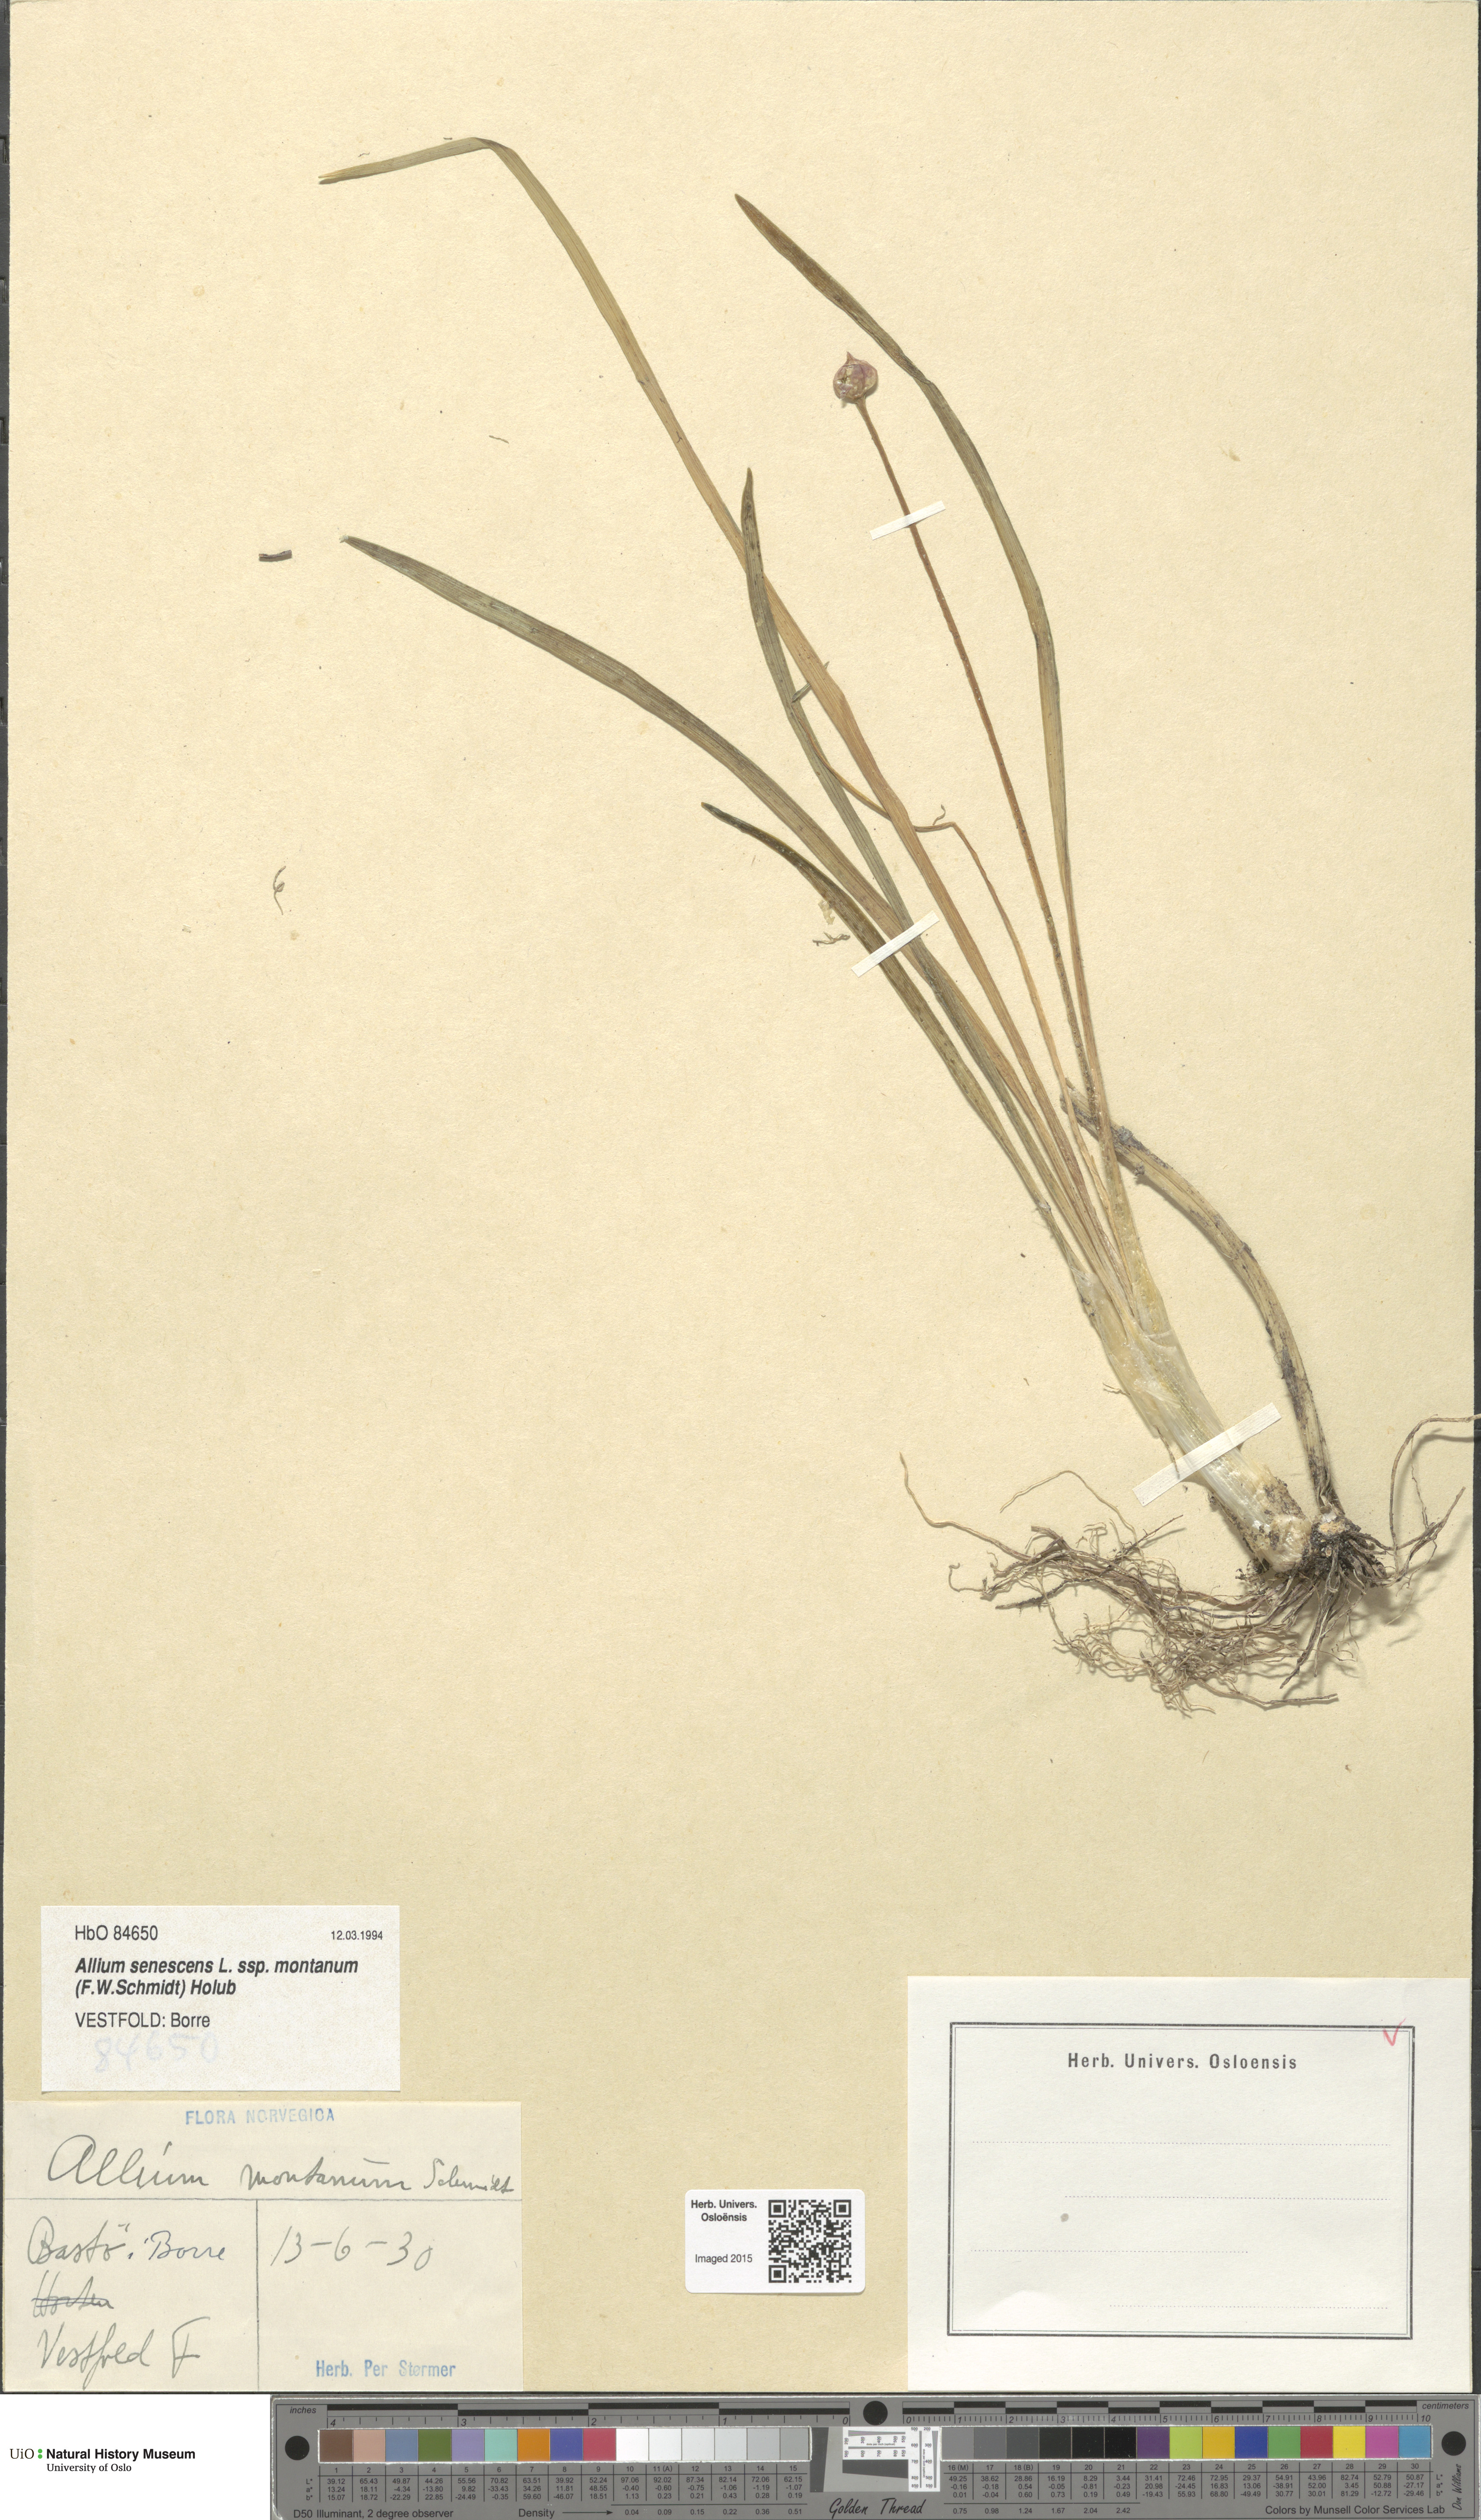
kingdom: Plantae
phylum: Tracheophyta
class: Liliopsida
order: Asparagales
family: Amaryllidaceae
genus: Allium
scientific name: Allium lusitanicum
